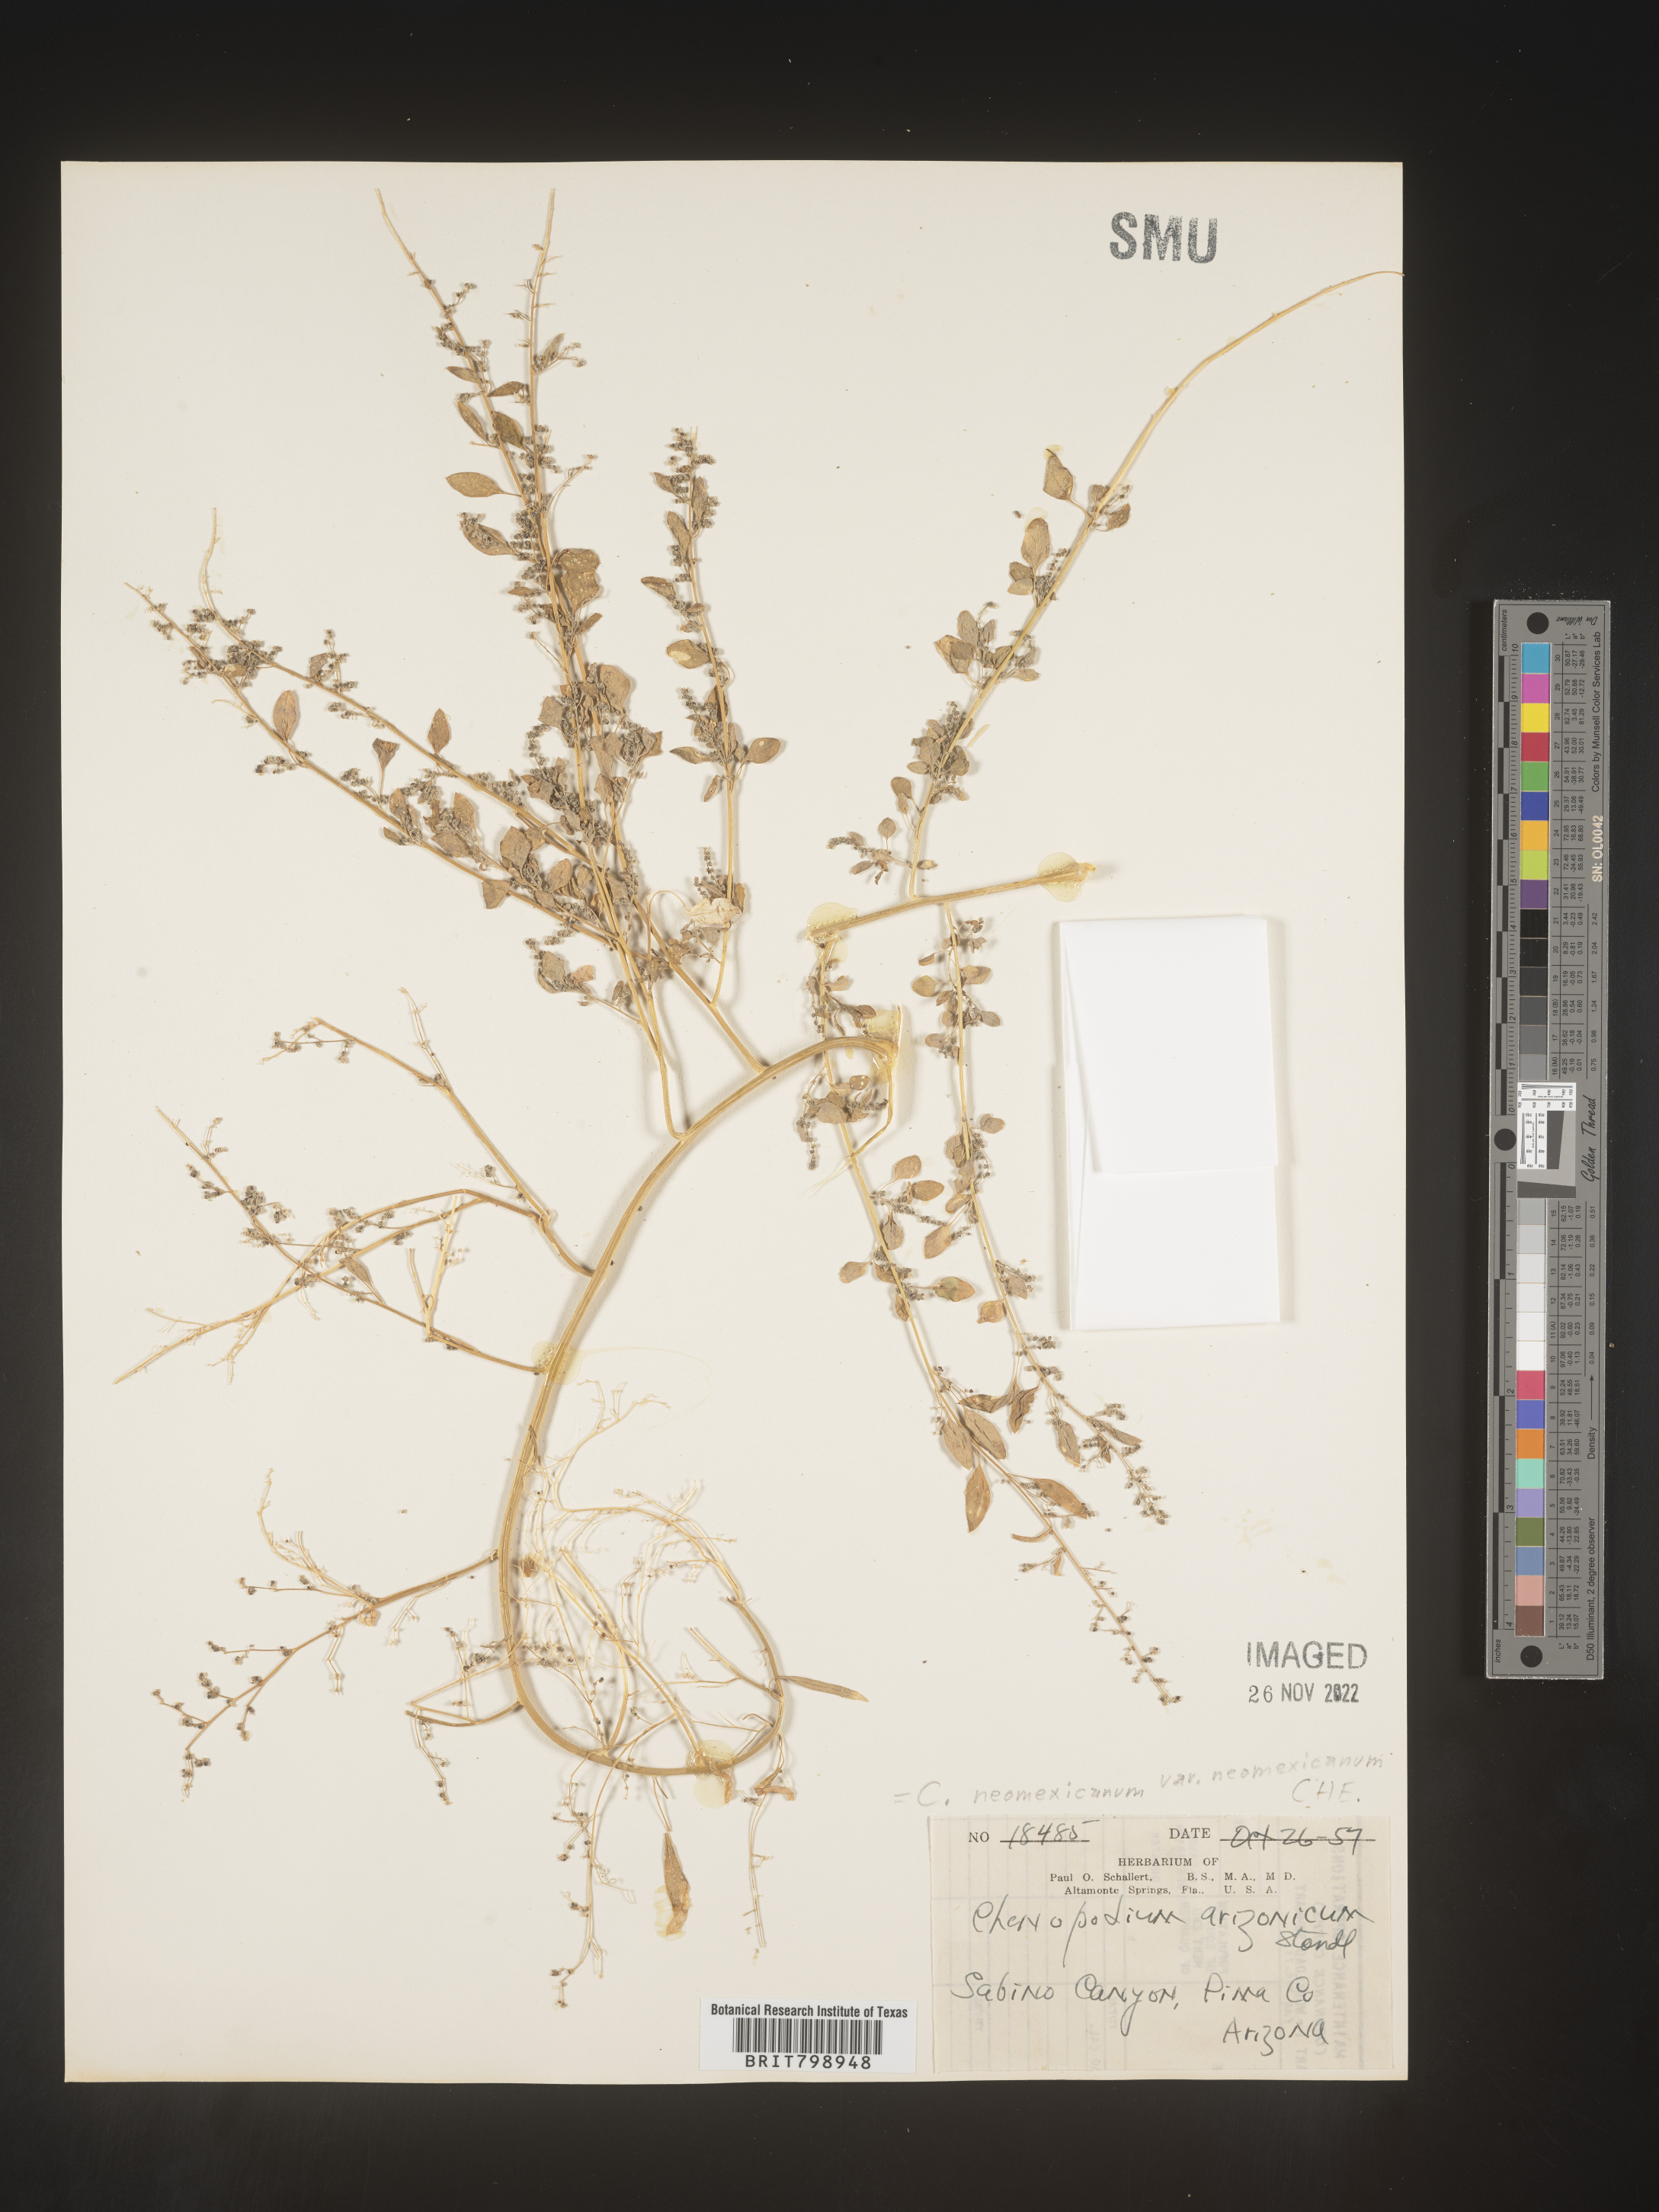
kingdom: Plantae
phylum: Tracheophyta
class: Magnoliopsida
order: Caryophyllales
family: Amaranthaceae
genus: Chenopodium
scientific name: Chenopodium
